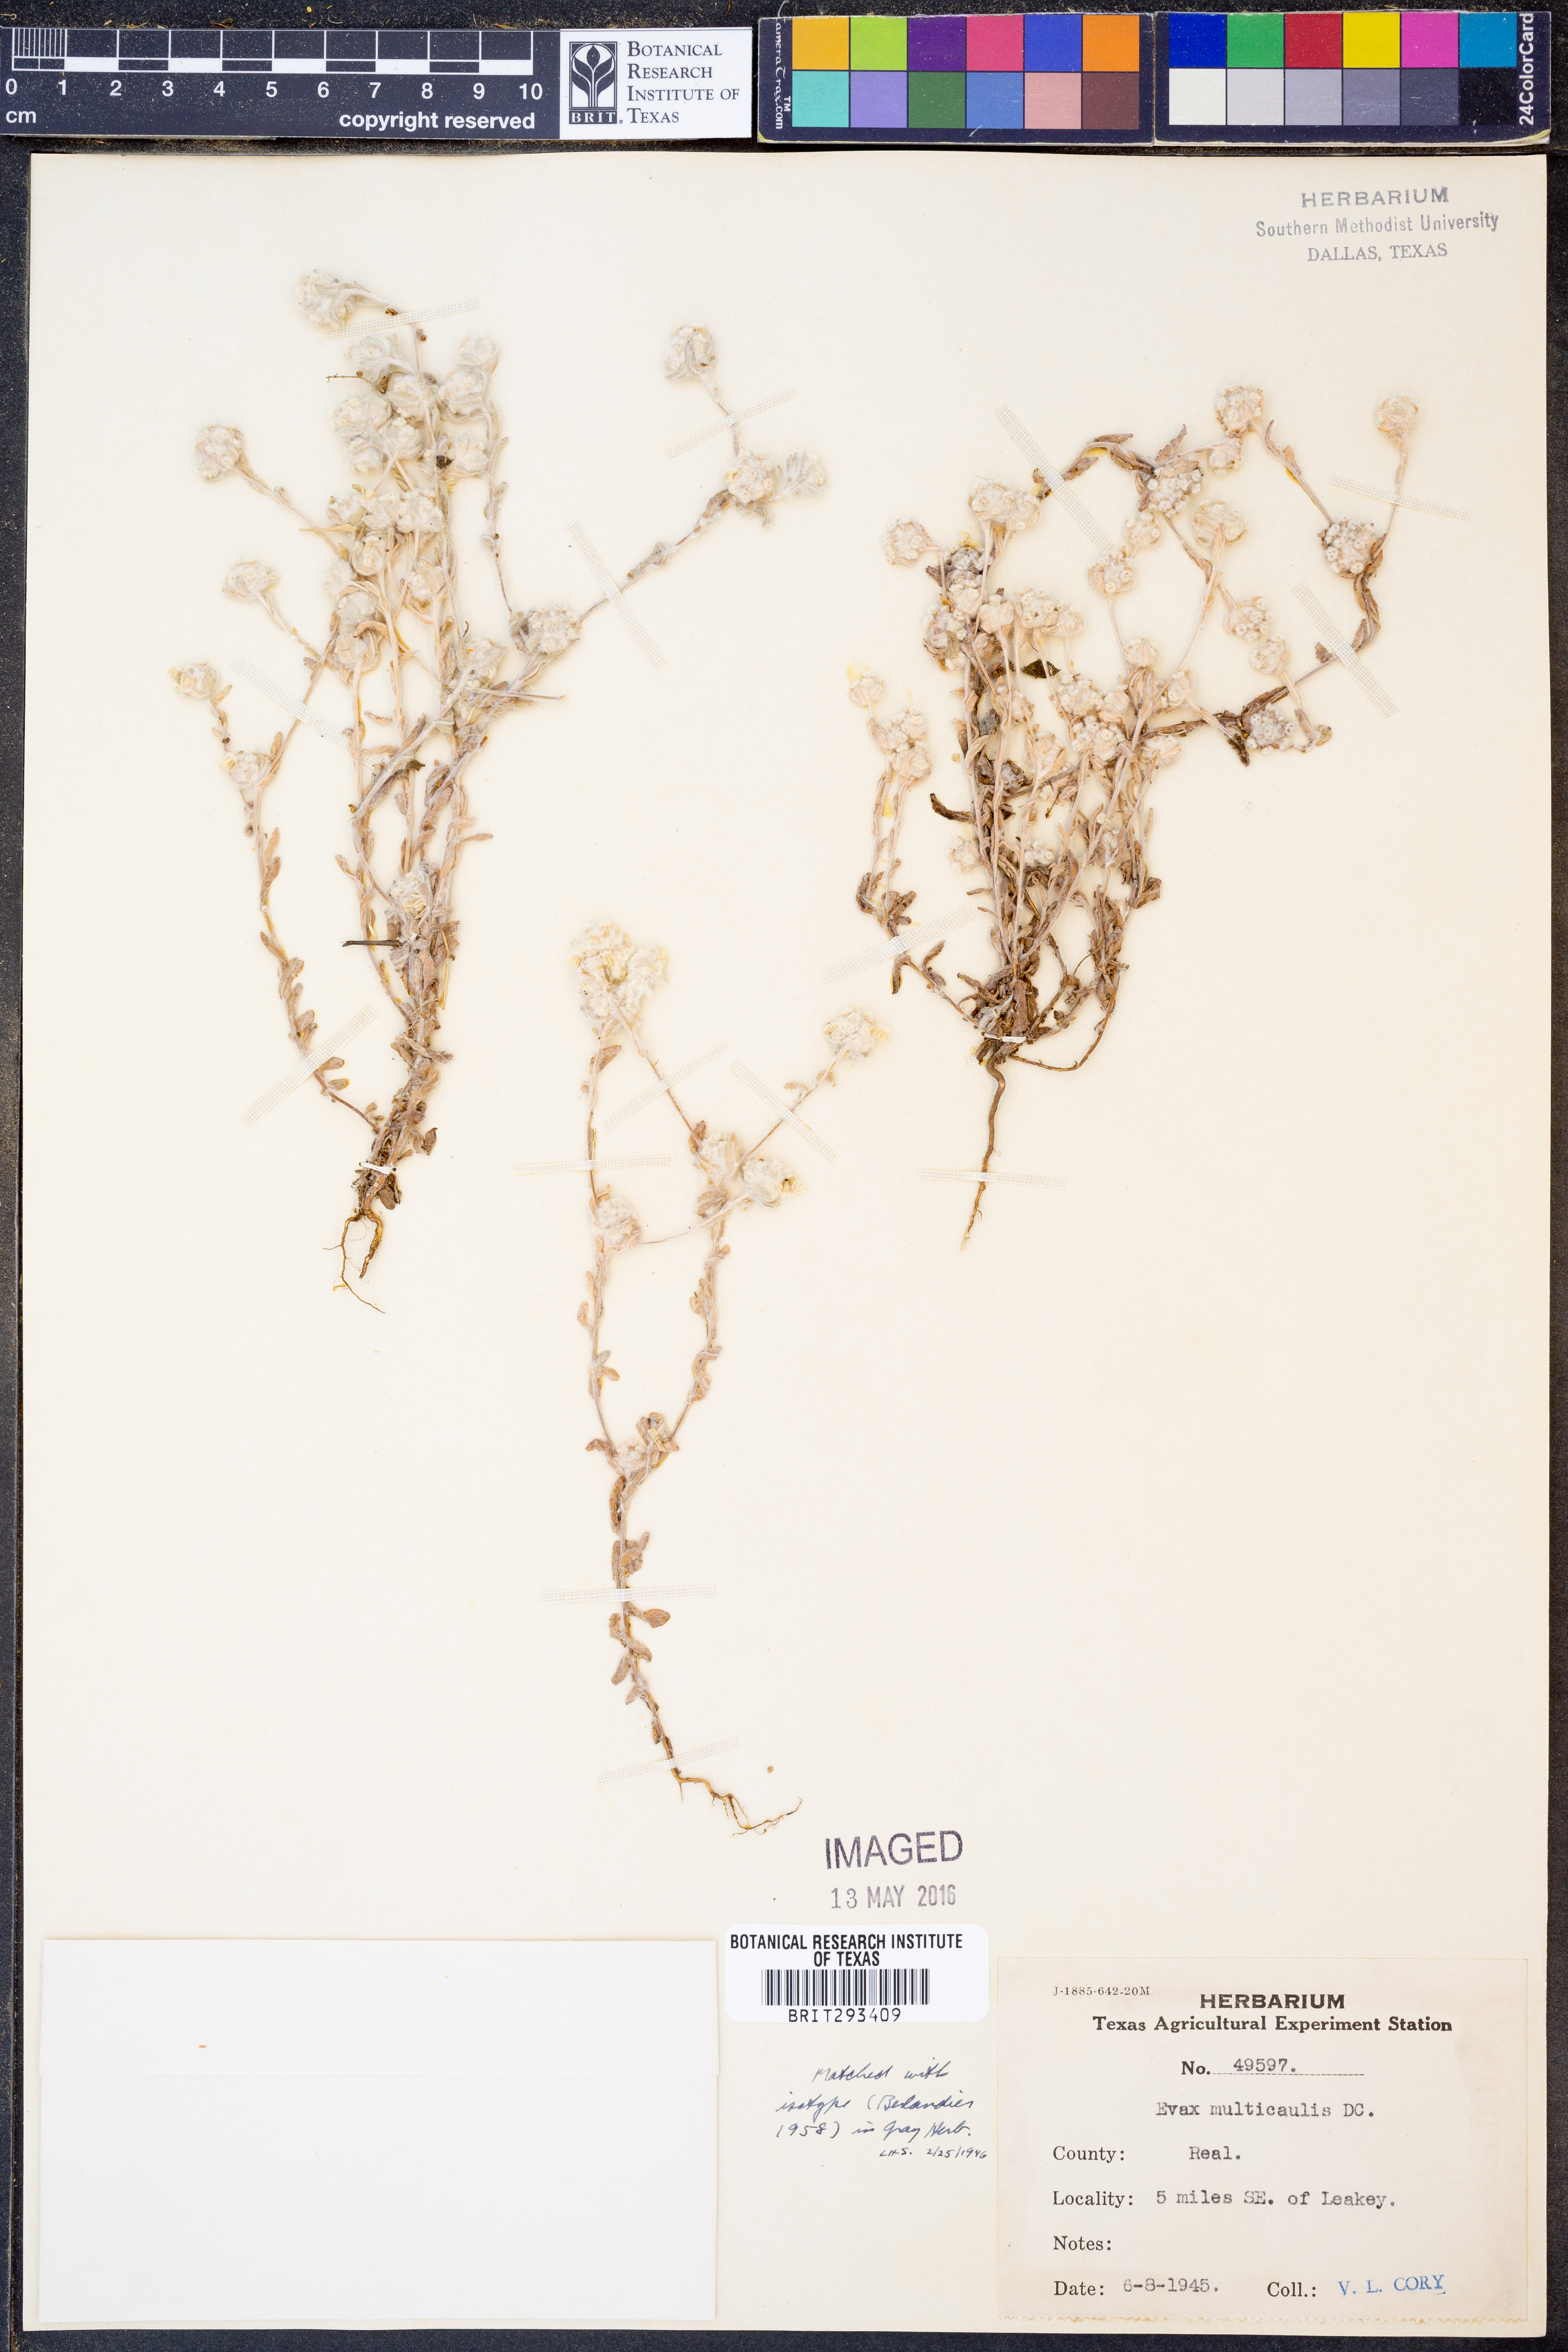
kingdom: Plantae
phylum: Tracheophyta
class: Magnoliopsida
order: Asterales
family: Asteraceae
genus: Diaperia
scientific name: Diaperia verna
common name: Many-stem rabbit-tobacco
